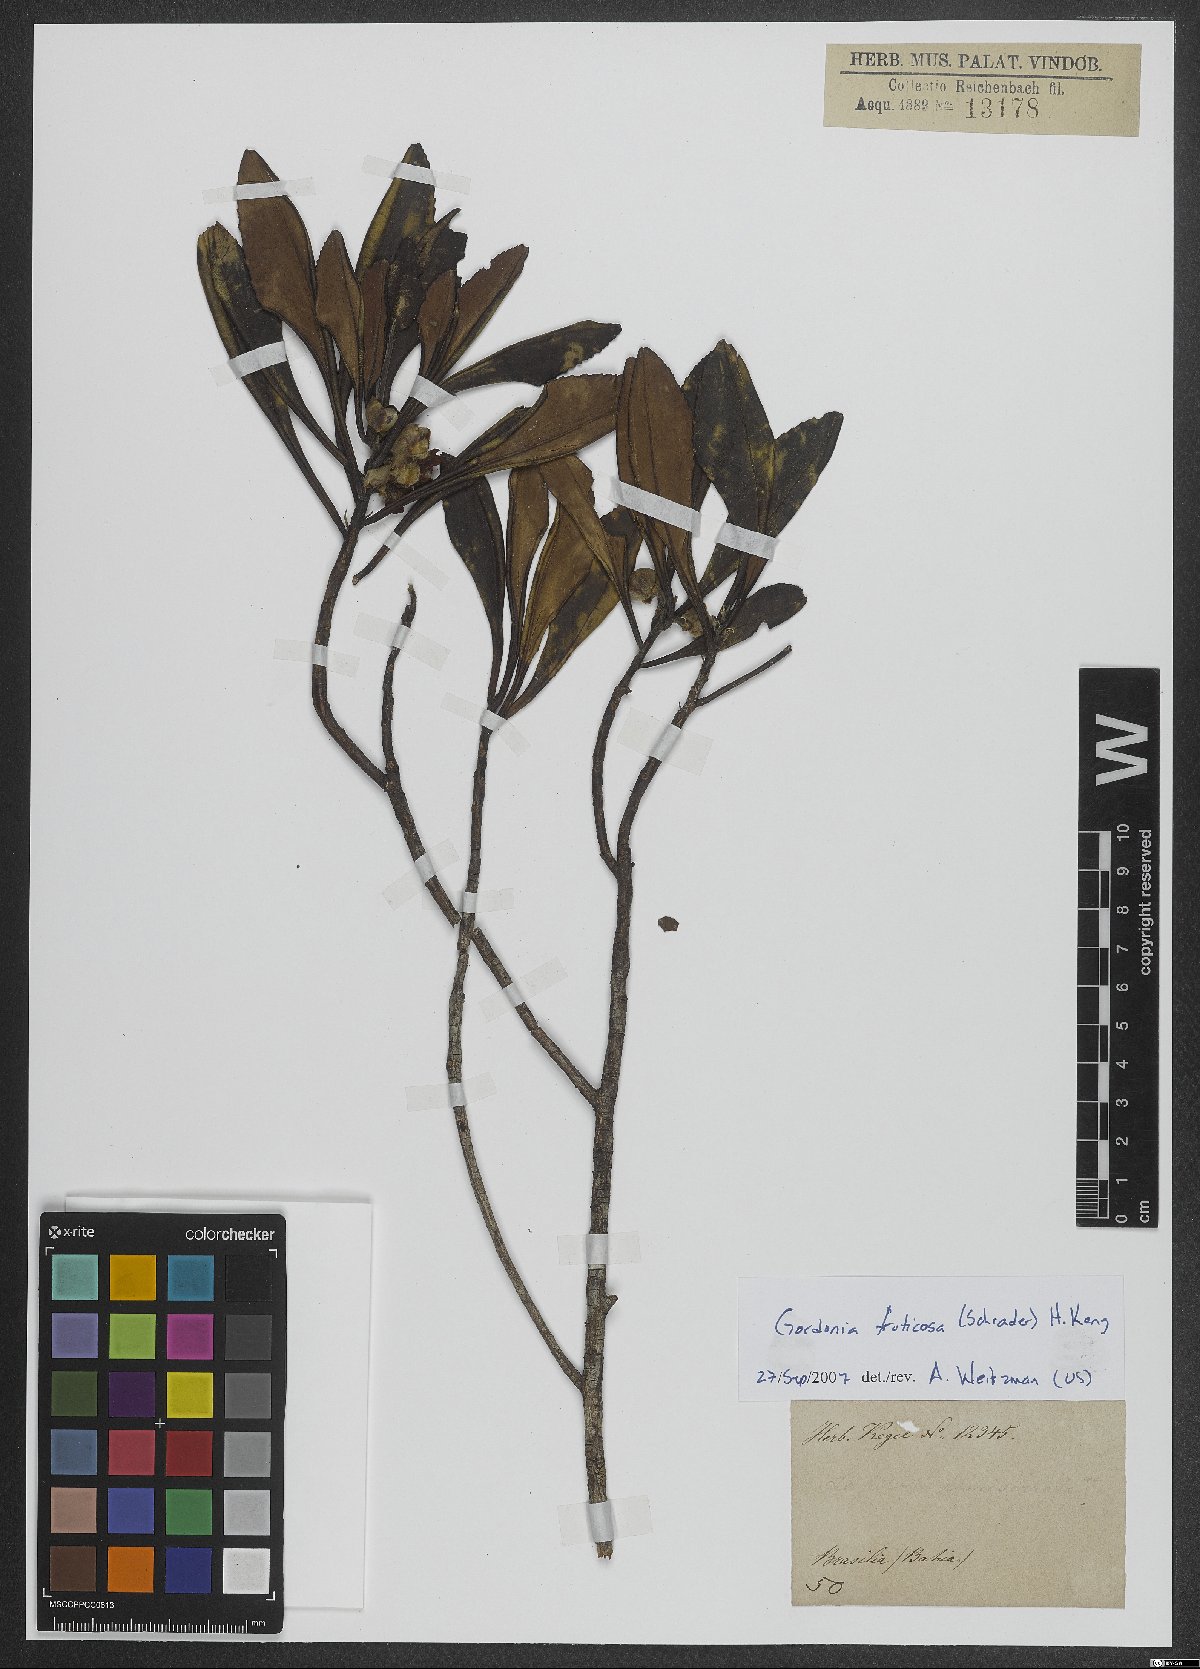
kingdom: Plantae
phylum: Tracheophyta
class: Magnoliopsida
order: Ericales
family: Theaceae
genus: Gordonia
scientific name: Gordonia fruticosa
